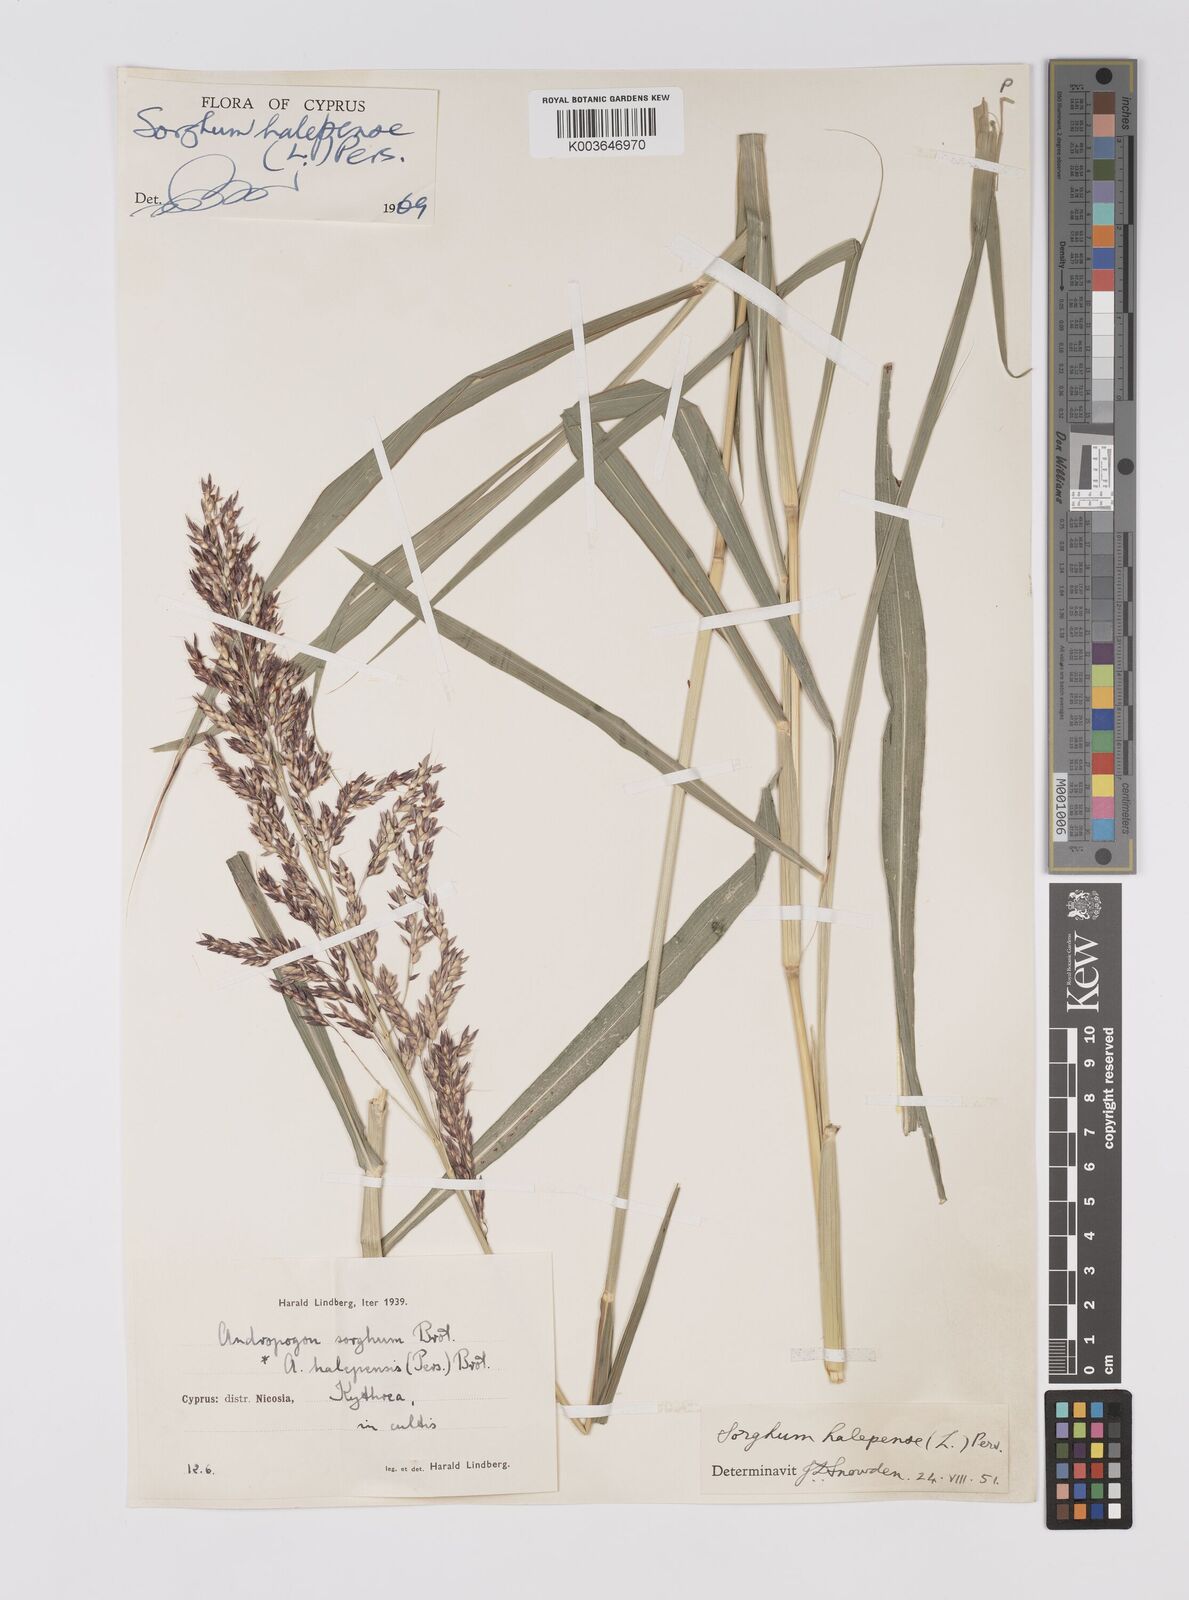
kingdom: Plantae
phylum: Tracheophyta
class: Liliopsida
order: Poales
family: Poaceae
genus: Sorghum
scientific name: Sorghum halepense
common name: Johnson-grass
